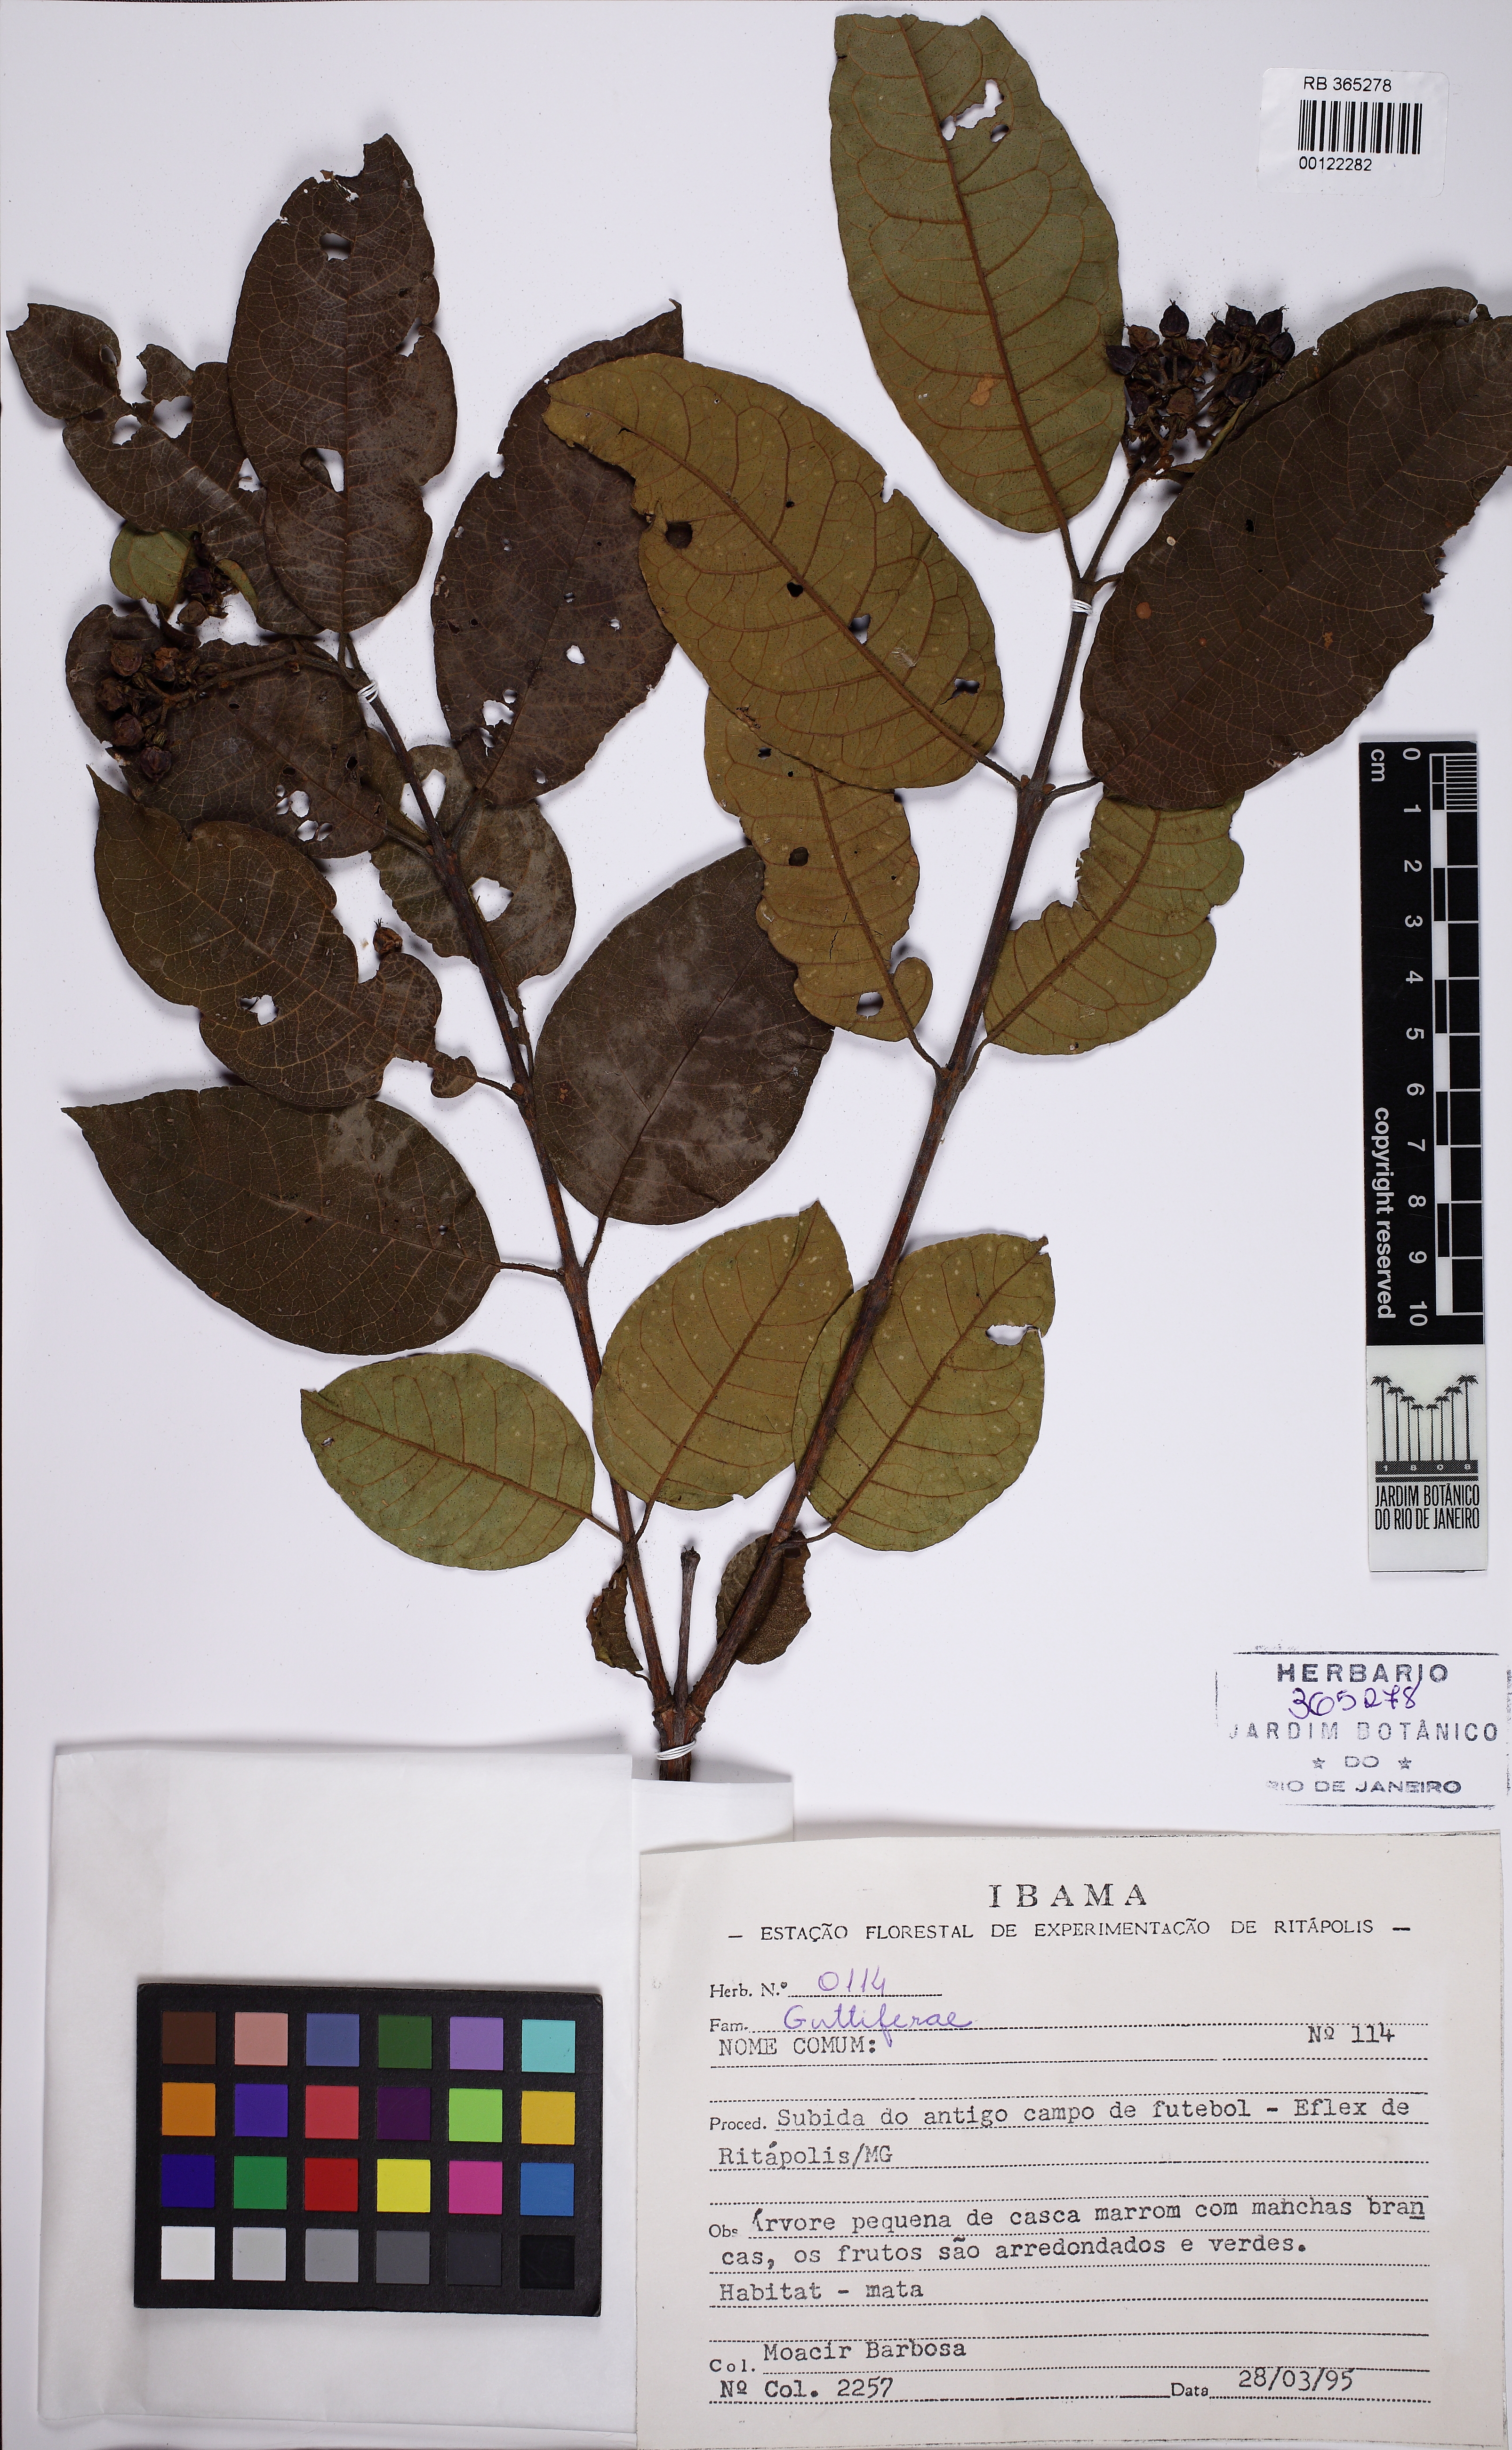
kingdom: Plantae
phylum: Tracheophyta
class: Magnoliopsida
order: Malpighiales
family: Hypericaceae
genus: Vismia
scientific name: Vismia brasiliensis
